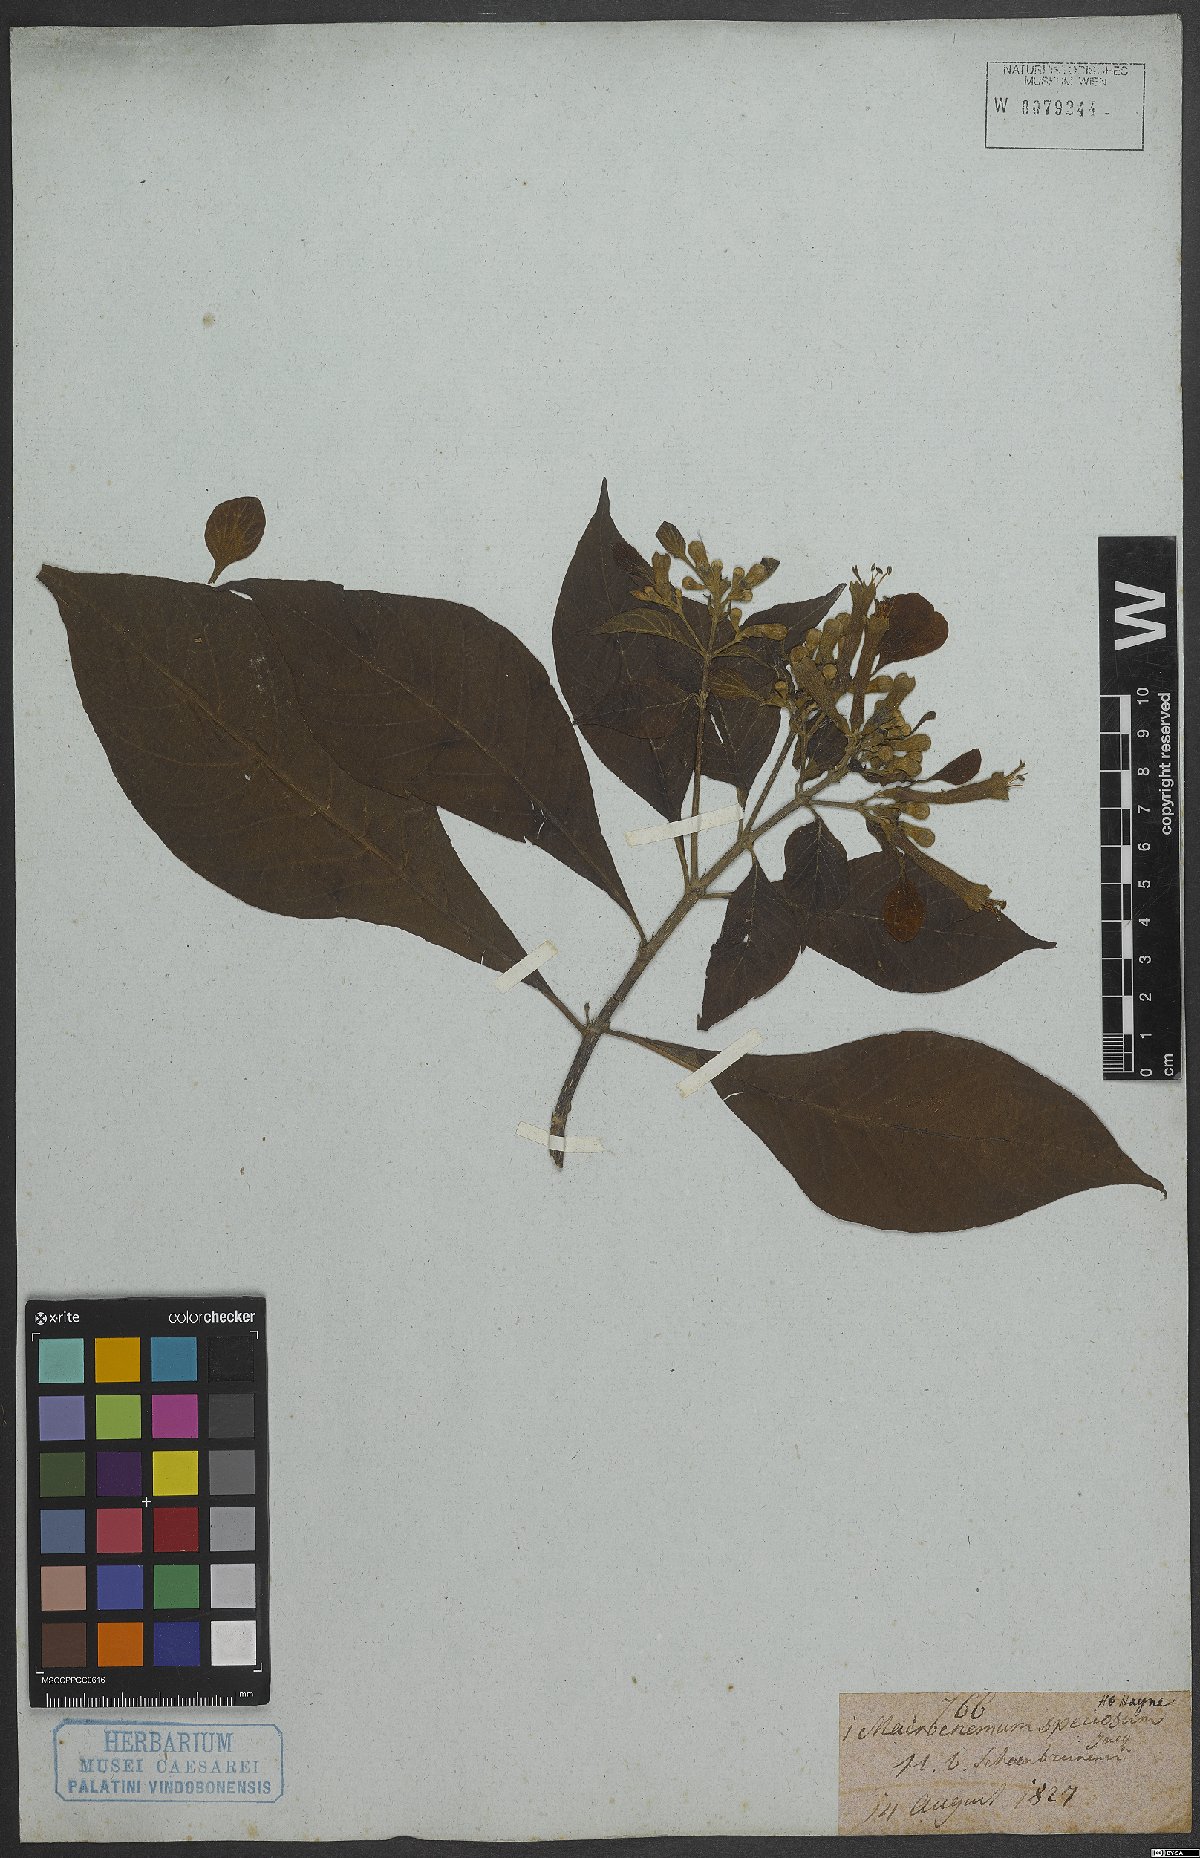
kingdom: Plantae
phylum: Tracheophyta
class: Magnoliopsida
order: Gentianales
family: Rubiaceae
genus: Pogonopus
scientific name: Pogonopus speciosus
